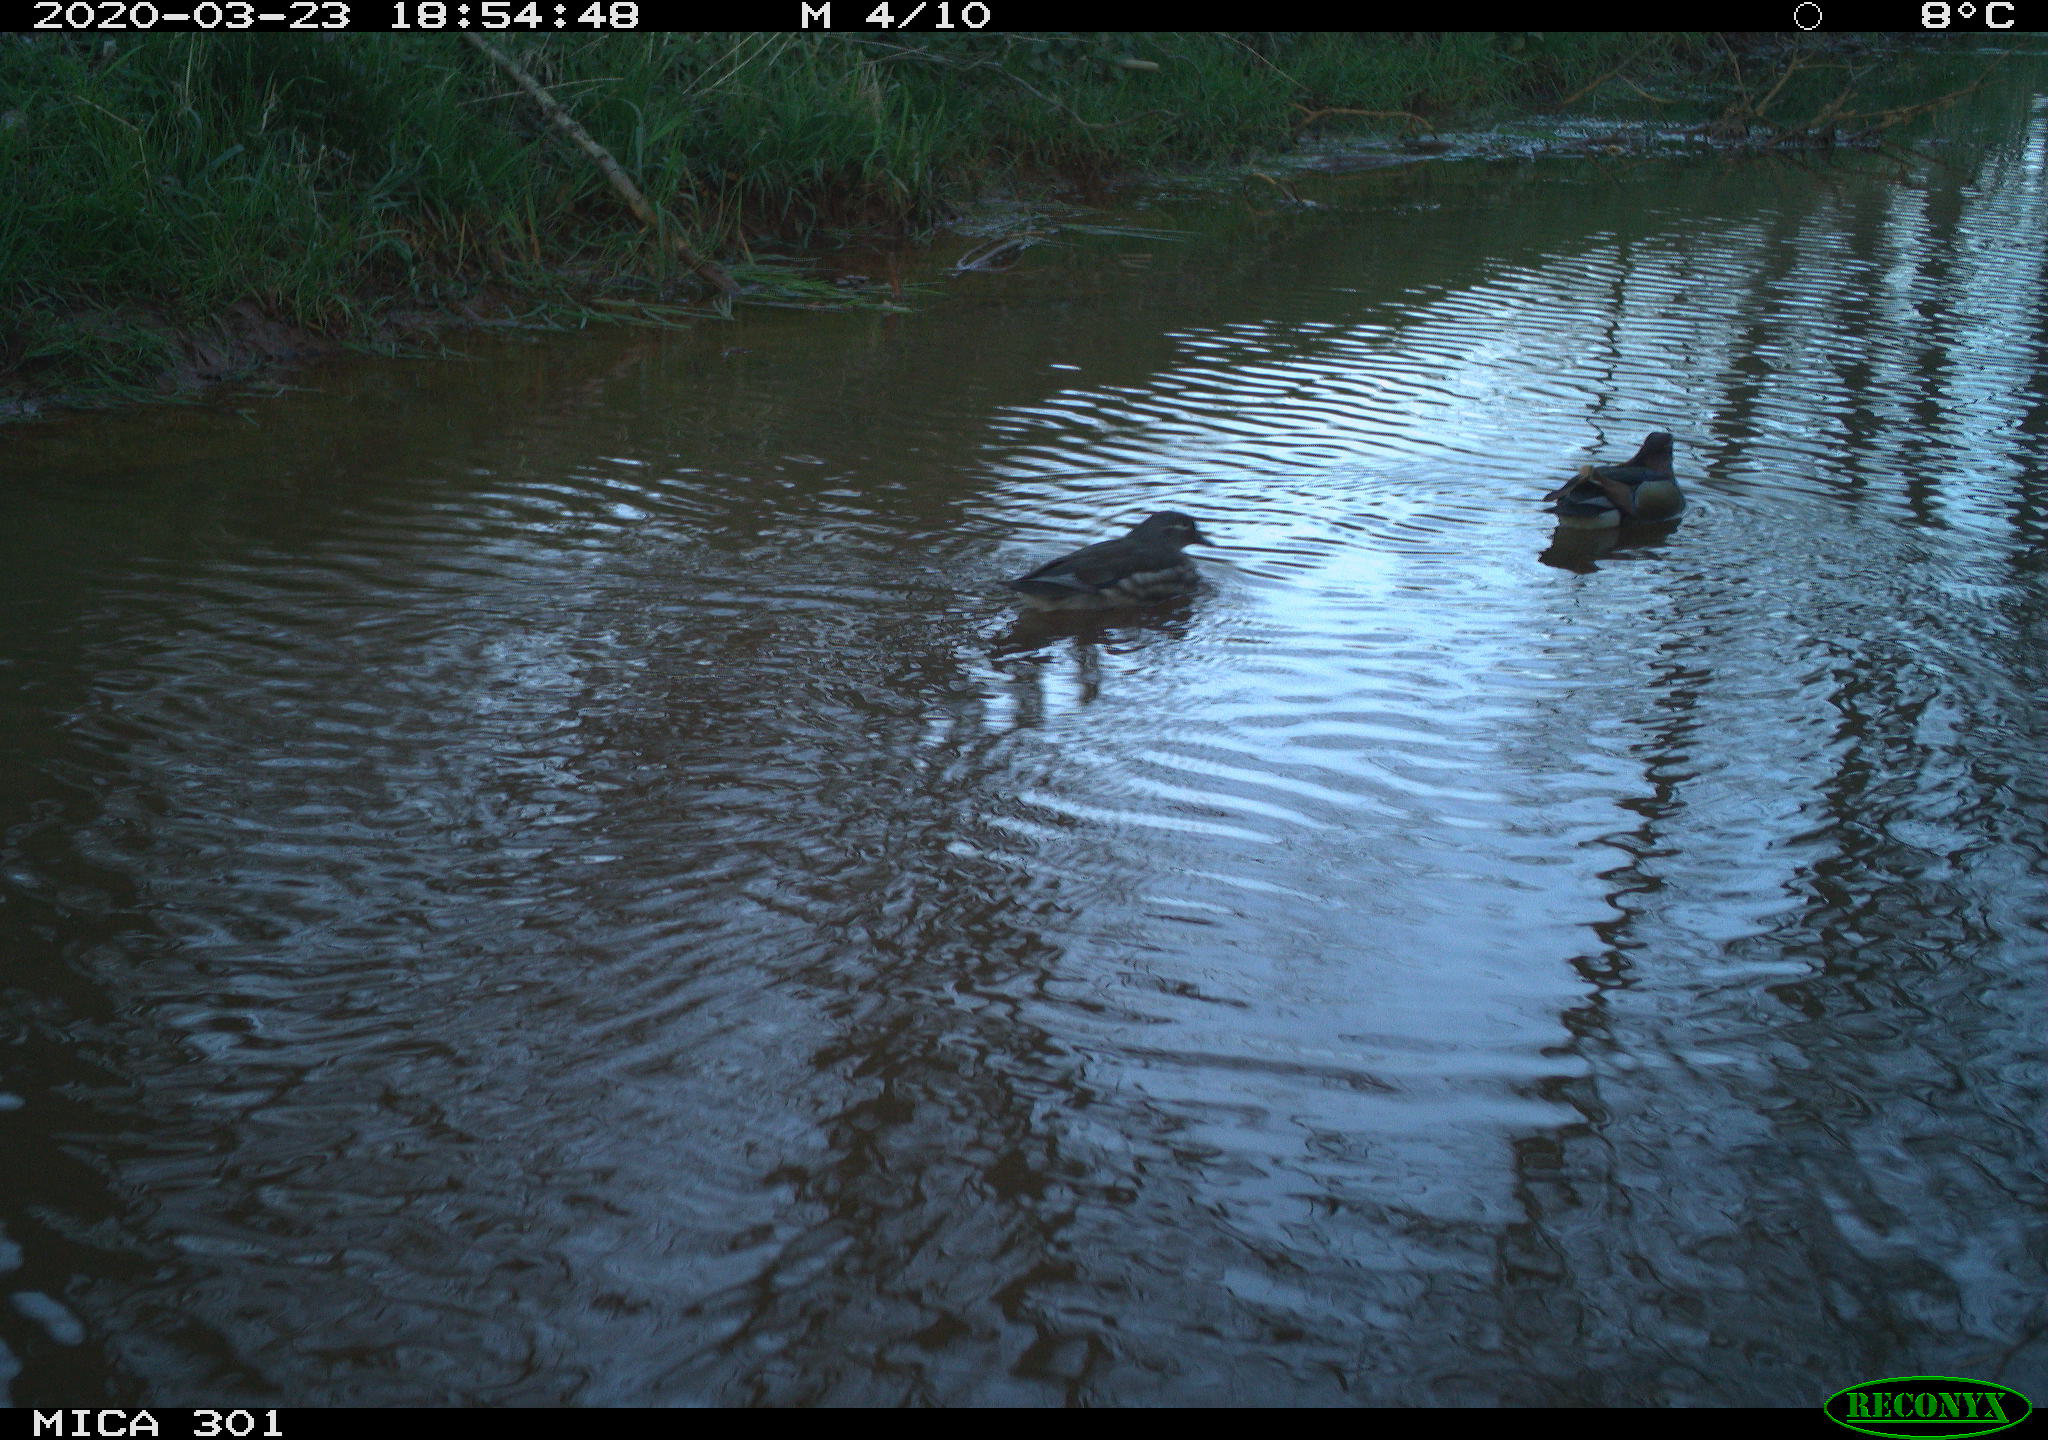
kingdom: Animalia
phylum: Chordata
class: Aves
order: Anseriformes
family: Anatidae
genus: Aix
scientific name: Aix galericulata
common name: Mandarin duck
